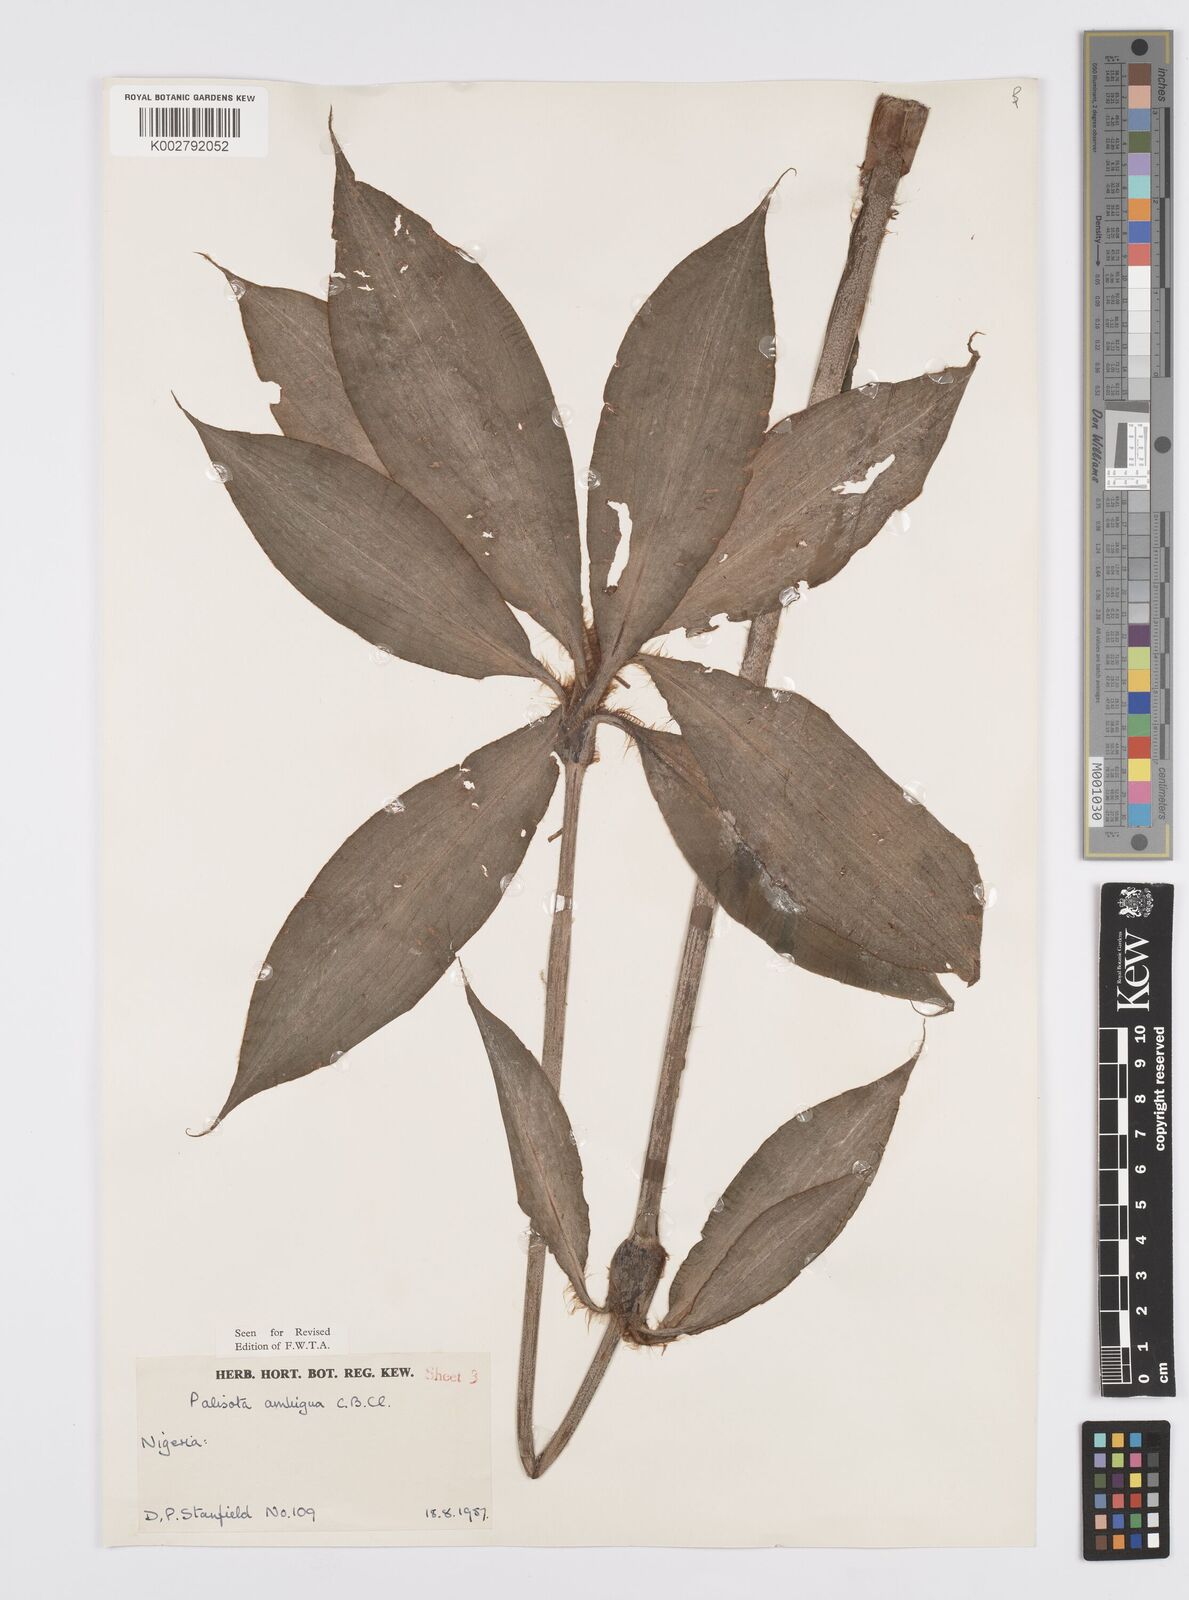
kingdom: Plantae
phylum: Tracheophyta
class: Liliopsida
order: Commelinales
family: Commelinaceae
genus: Palisota
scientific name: Palisota ambigua
